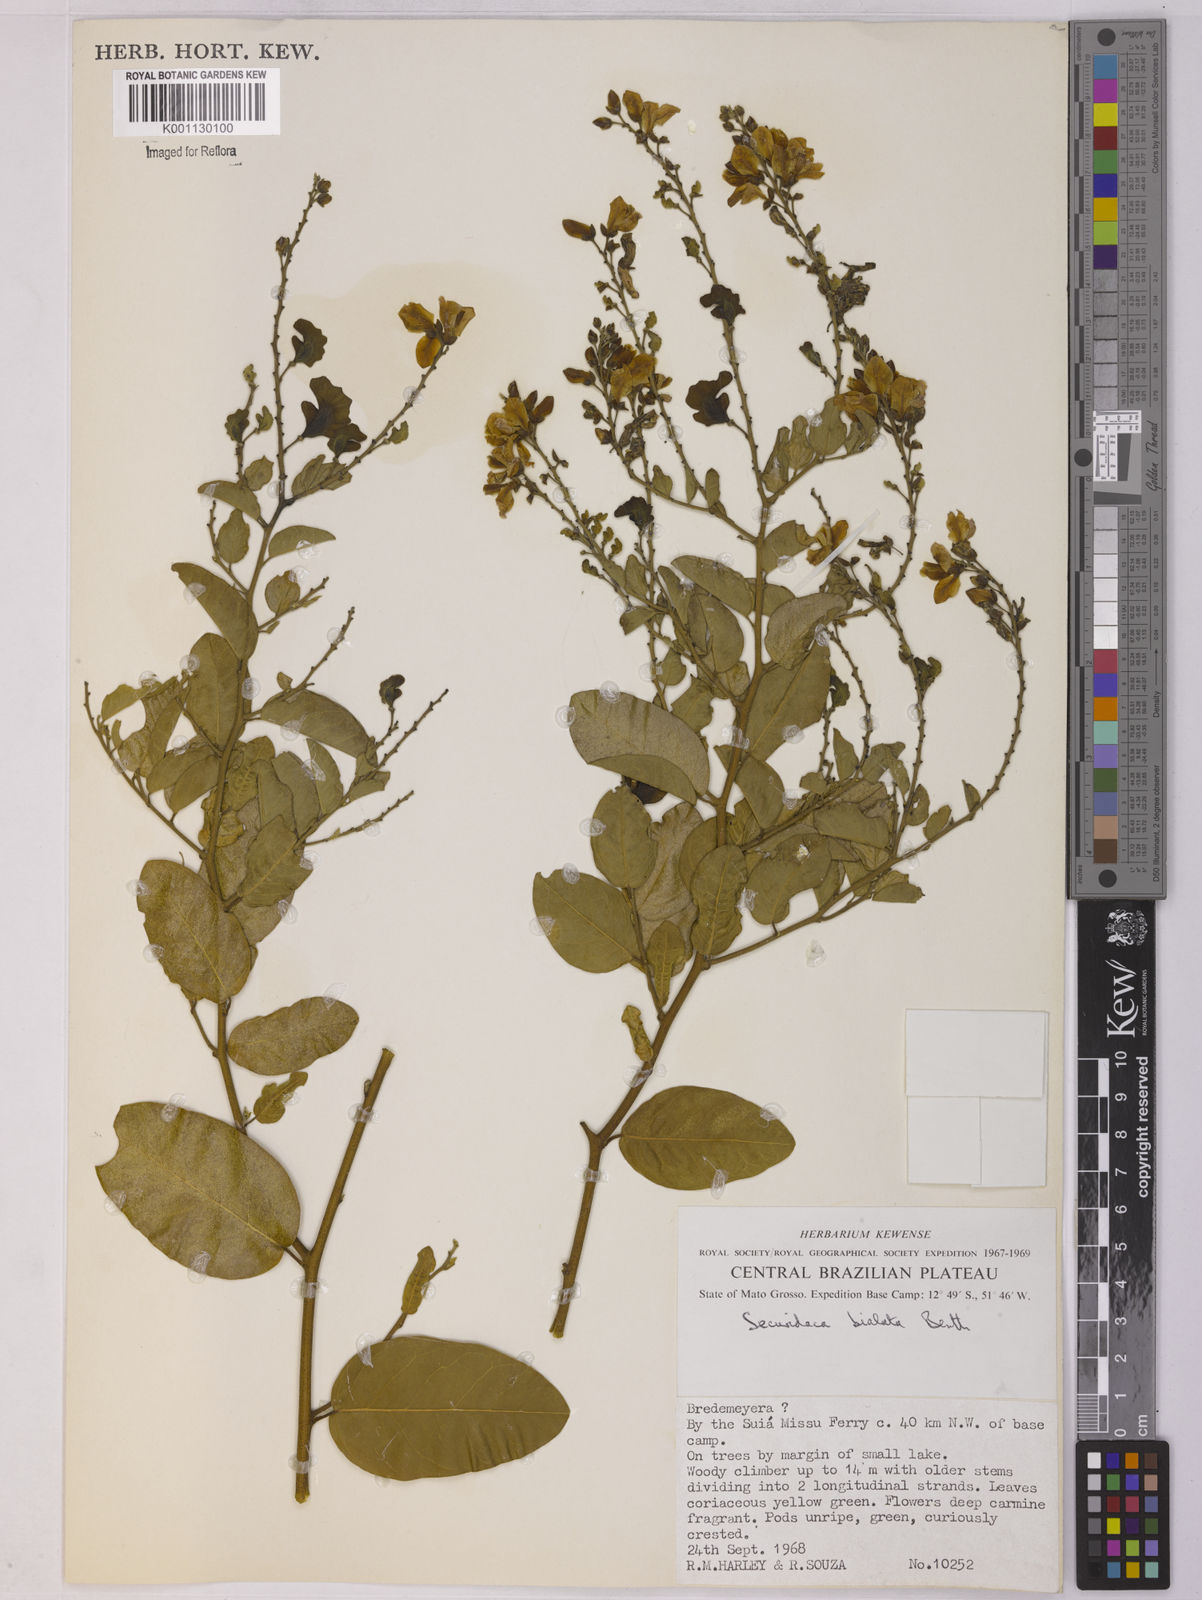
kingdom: Plantae
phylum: Tracheophyta
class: Magnoliopsida
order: Fabales
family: Polygalaceae
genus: Securidaca
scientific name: Securidaca bialata
